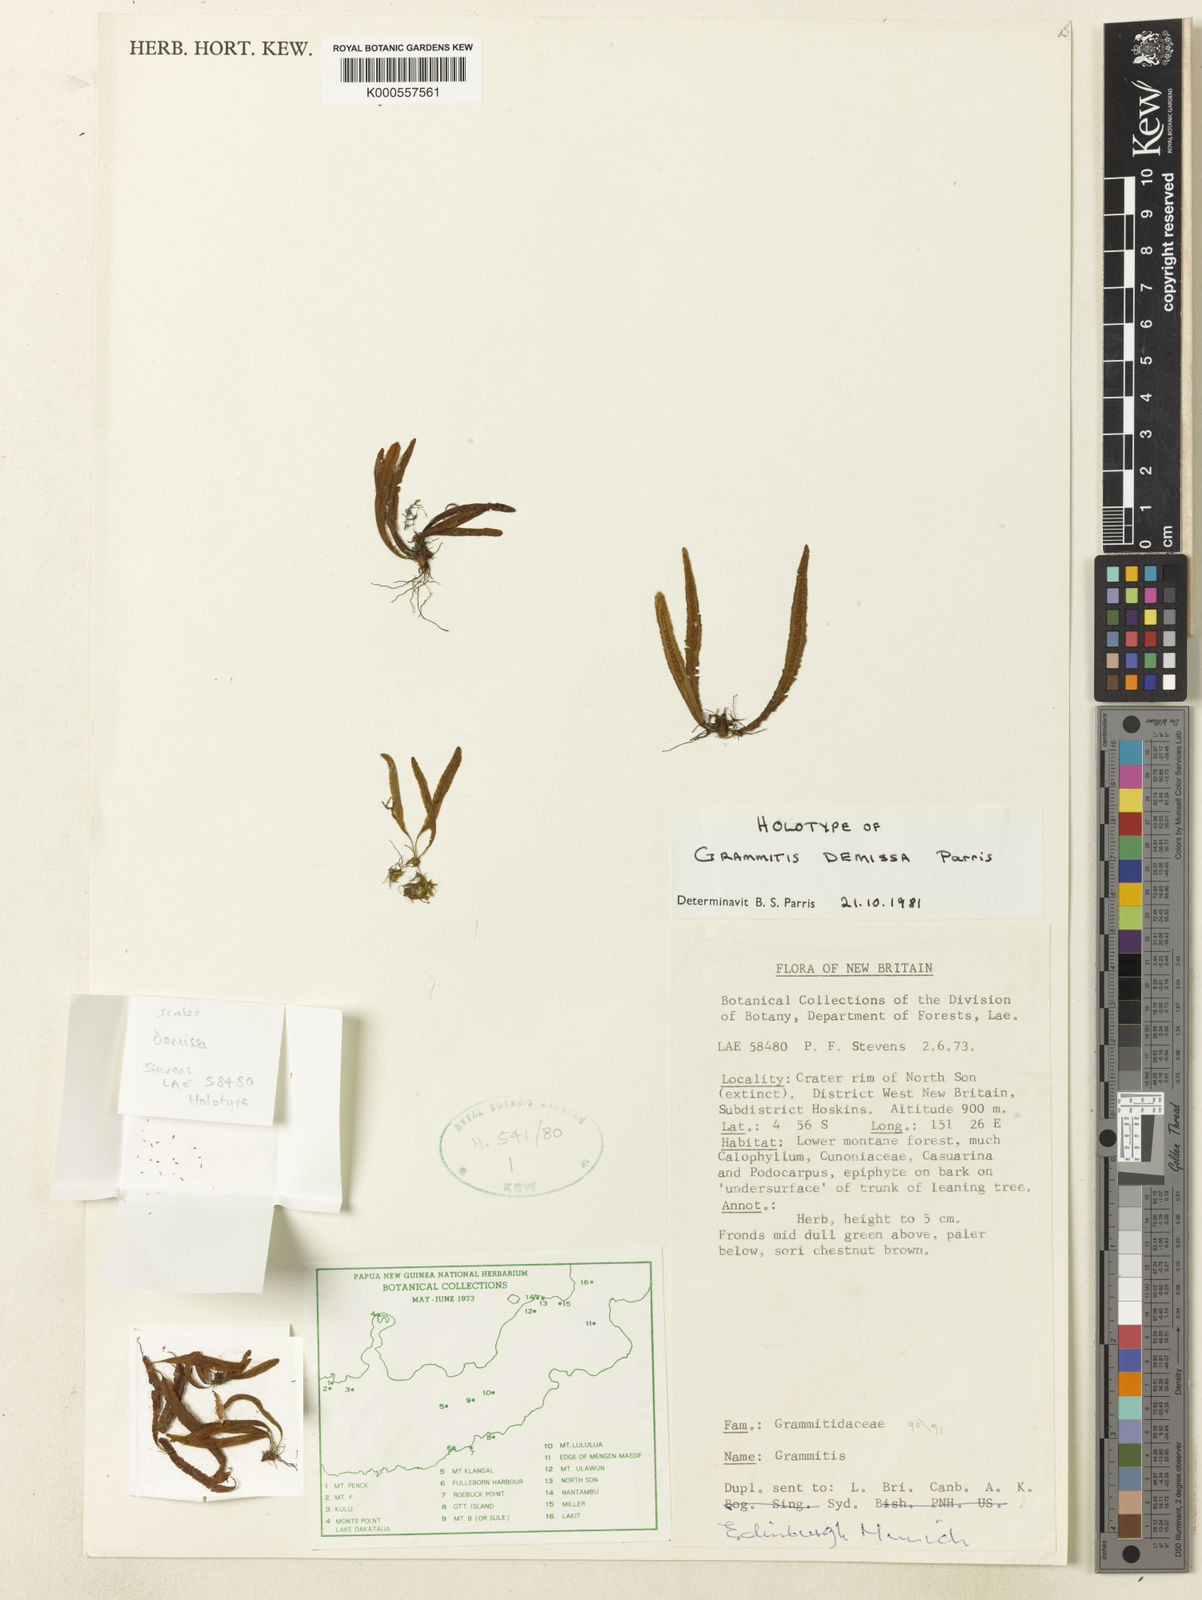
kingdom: Plantae
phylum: Tracheophyta
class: Polypodiopsida
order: Polypodiales
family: Polypodiaceae
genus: Archigrammitis
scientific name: Archigrammitis demissa
